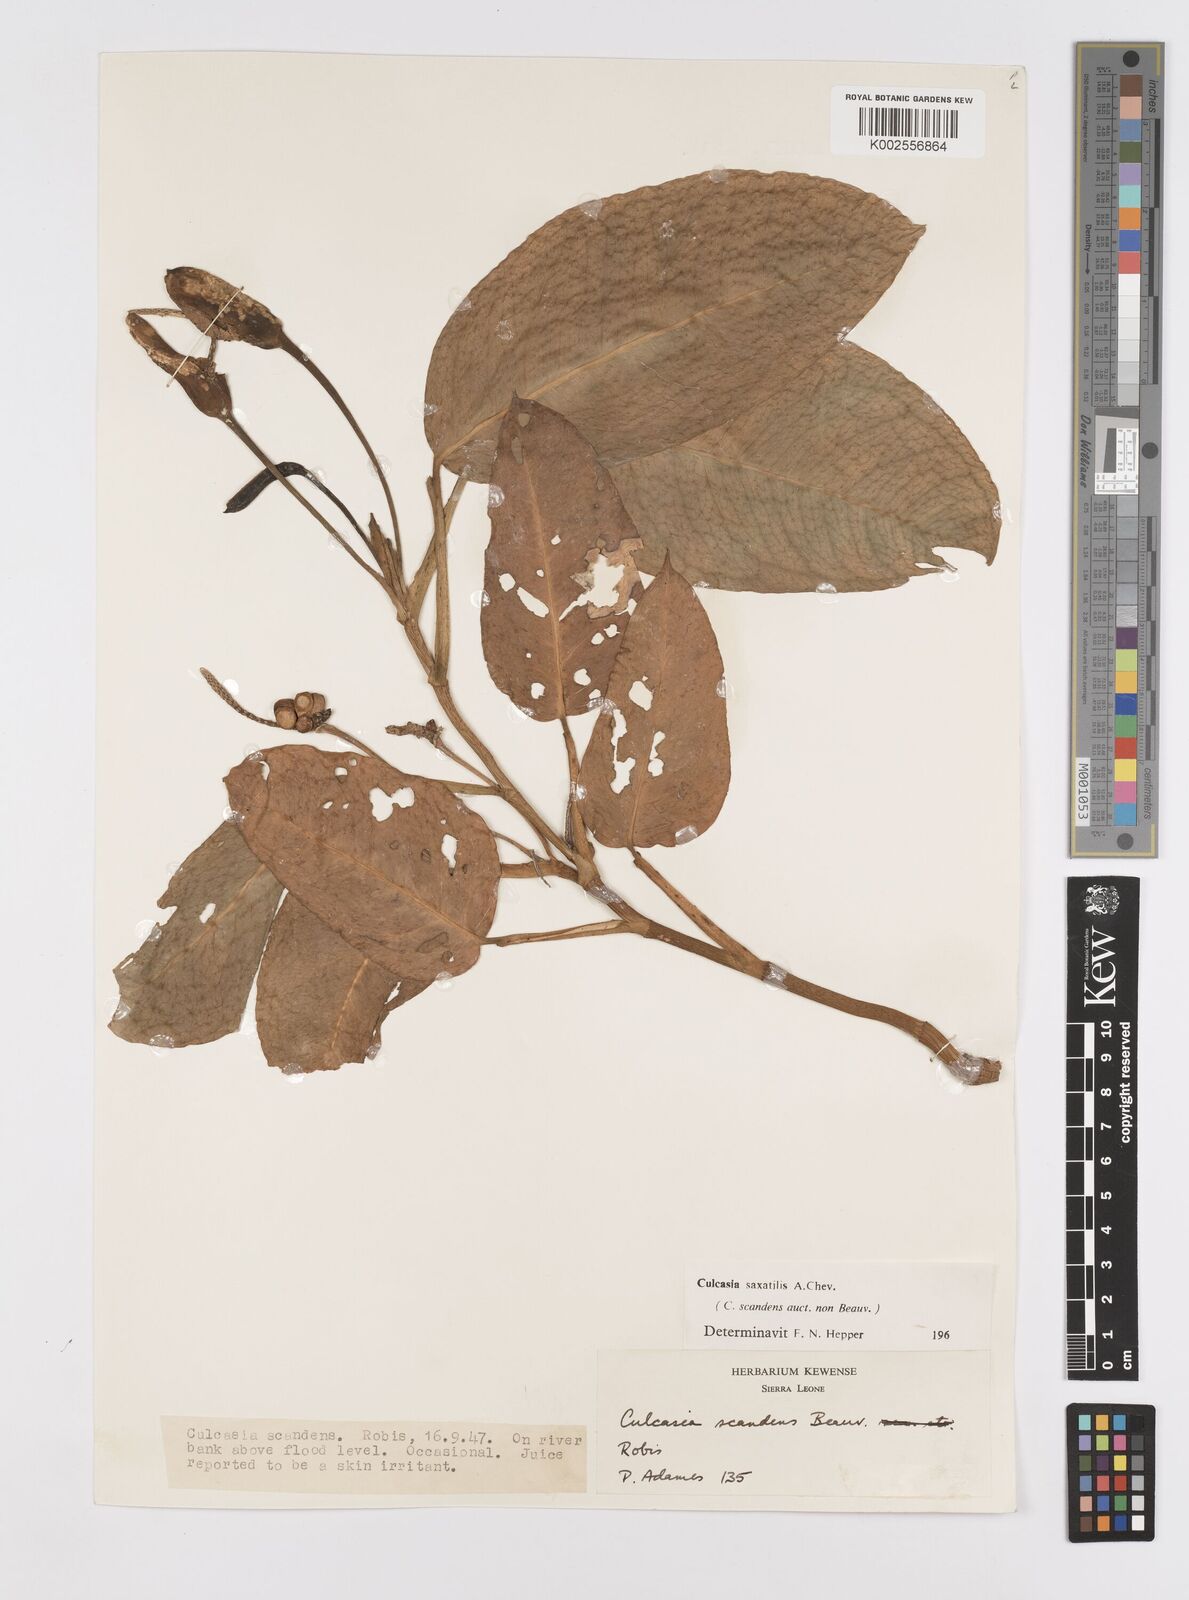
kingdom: Plantae
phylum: Tracheophyta
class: Liliopsida
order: Alismatales
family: Araceae
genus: Culcasia
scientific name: Culcasia scandens
